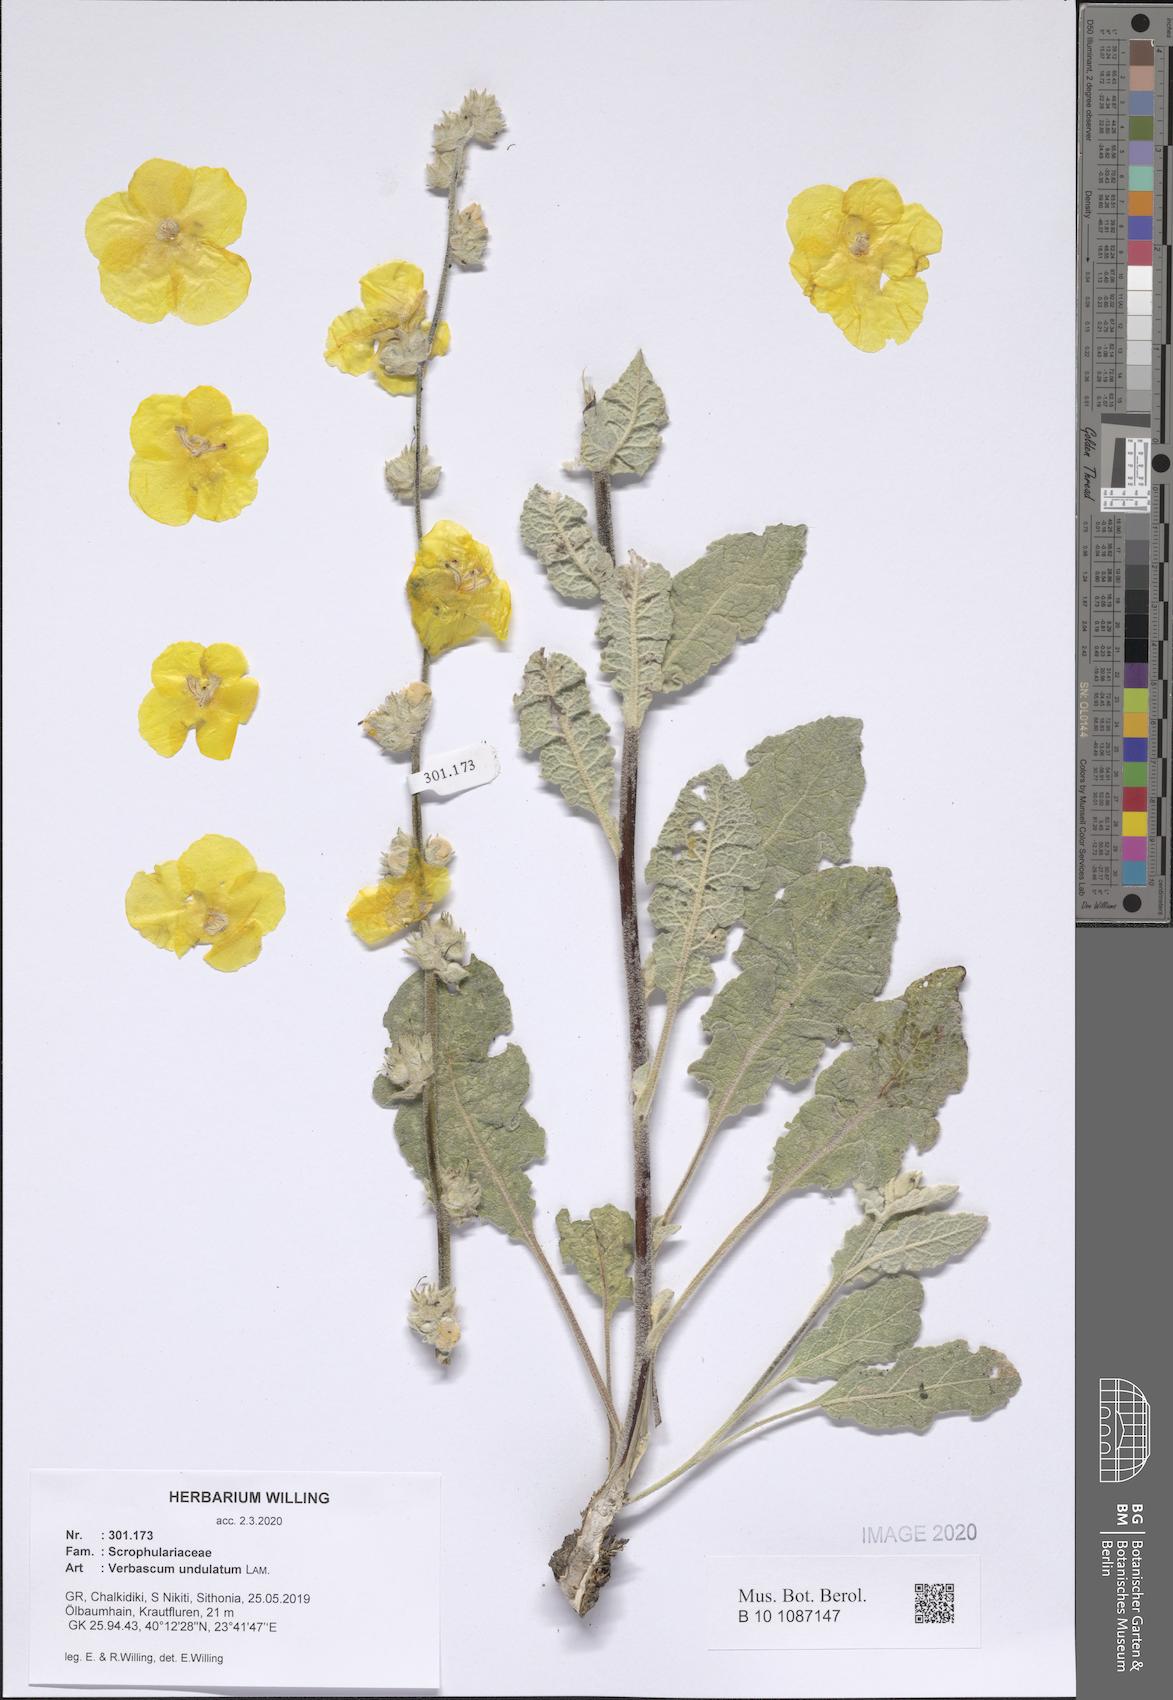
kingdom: Plantae
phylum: Tracheophyta
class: Magnoliopsida
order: Lamiales
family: Scrophulariaceae
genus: Verbascum
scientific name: Verbascum undulatum
